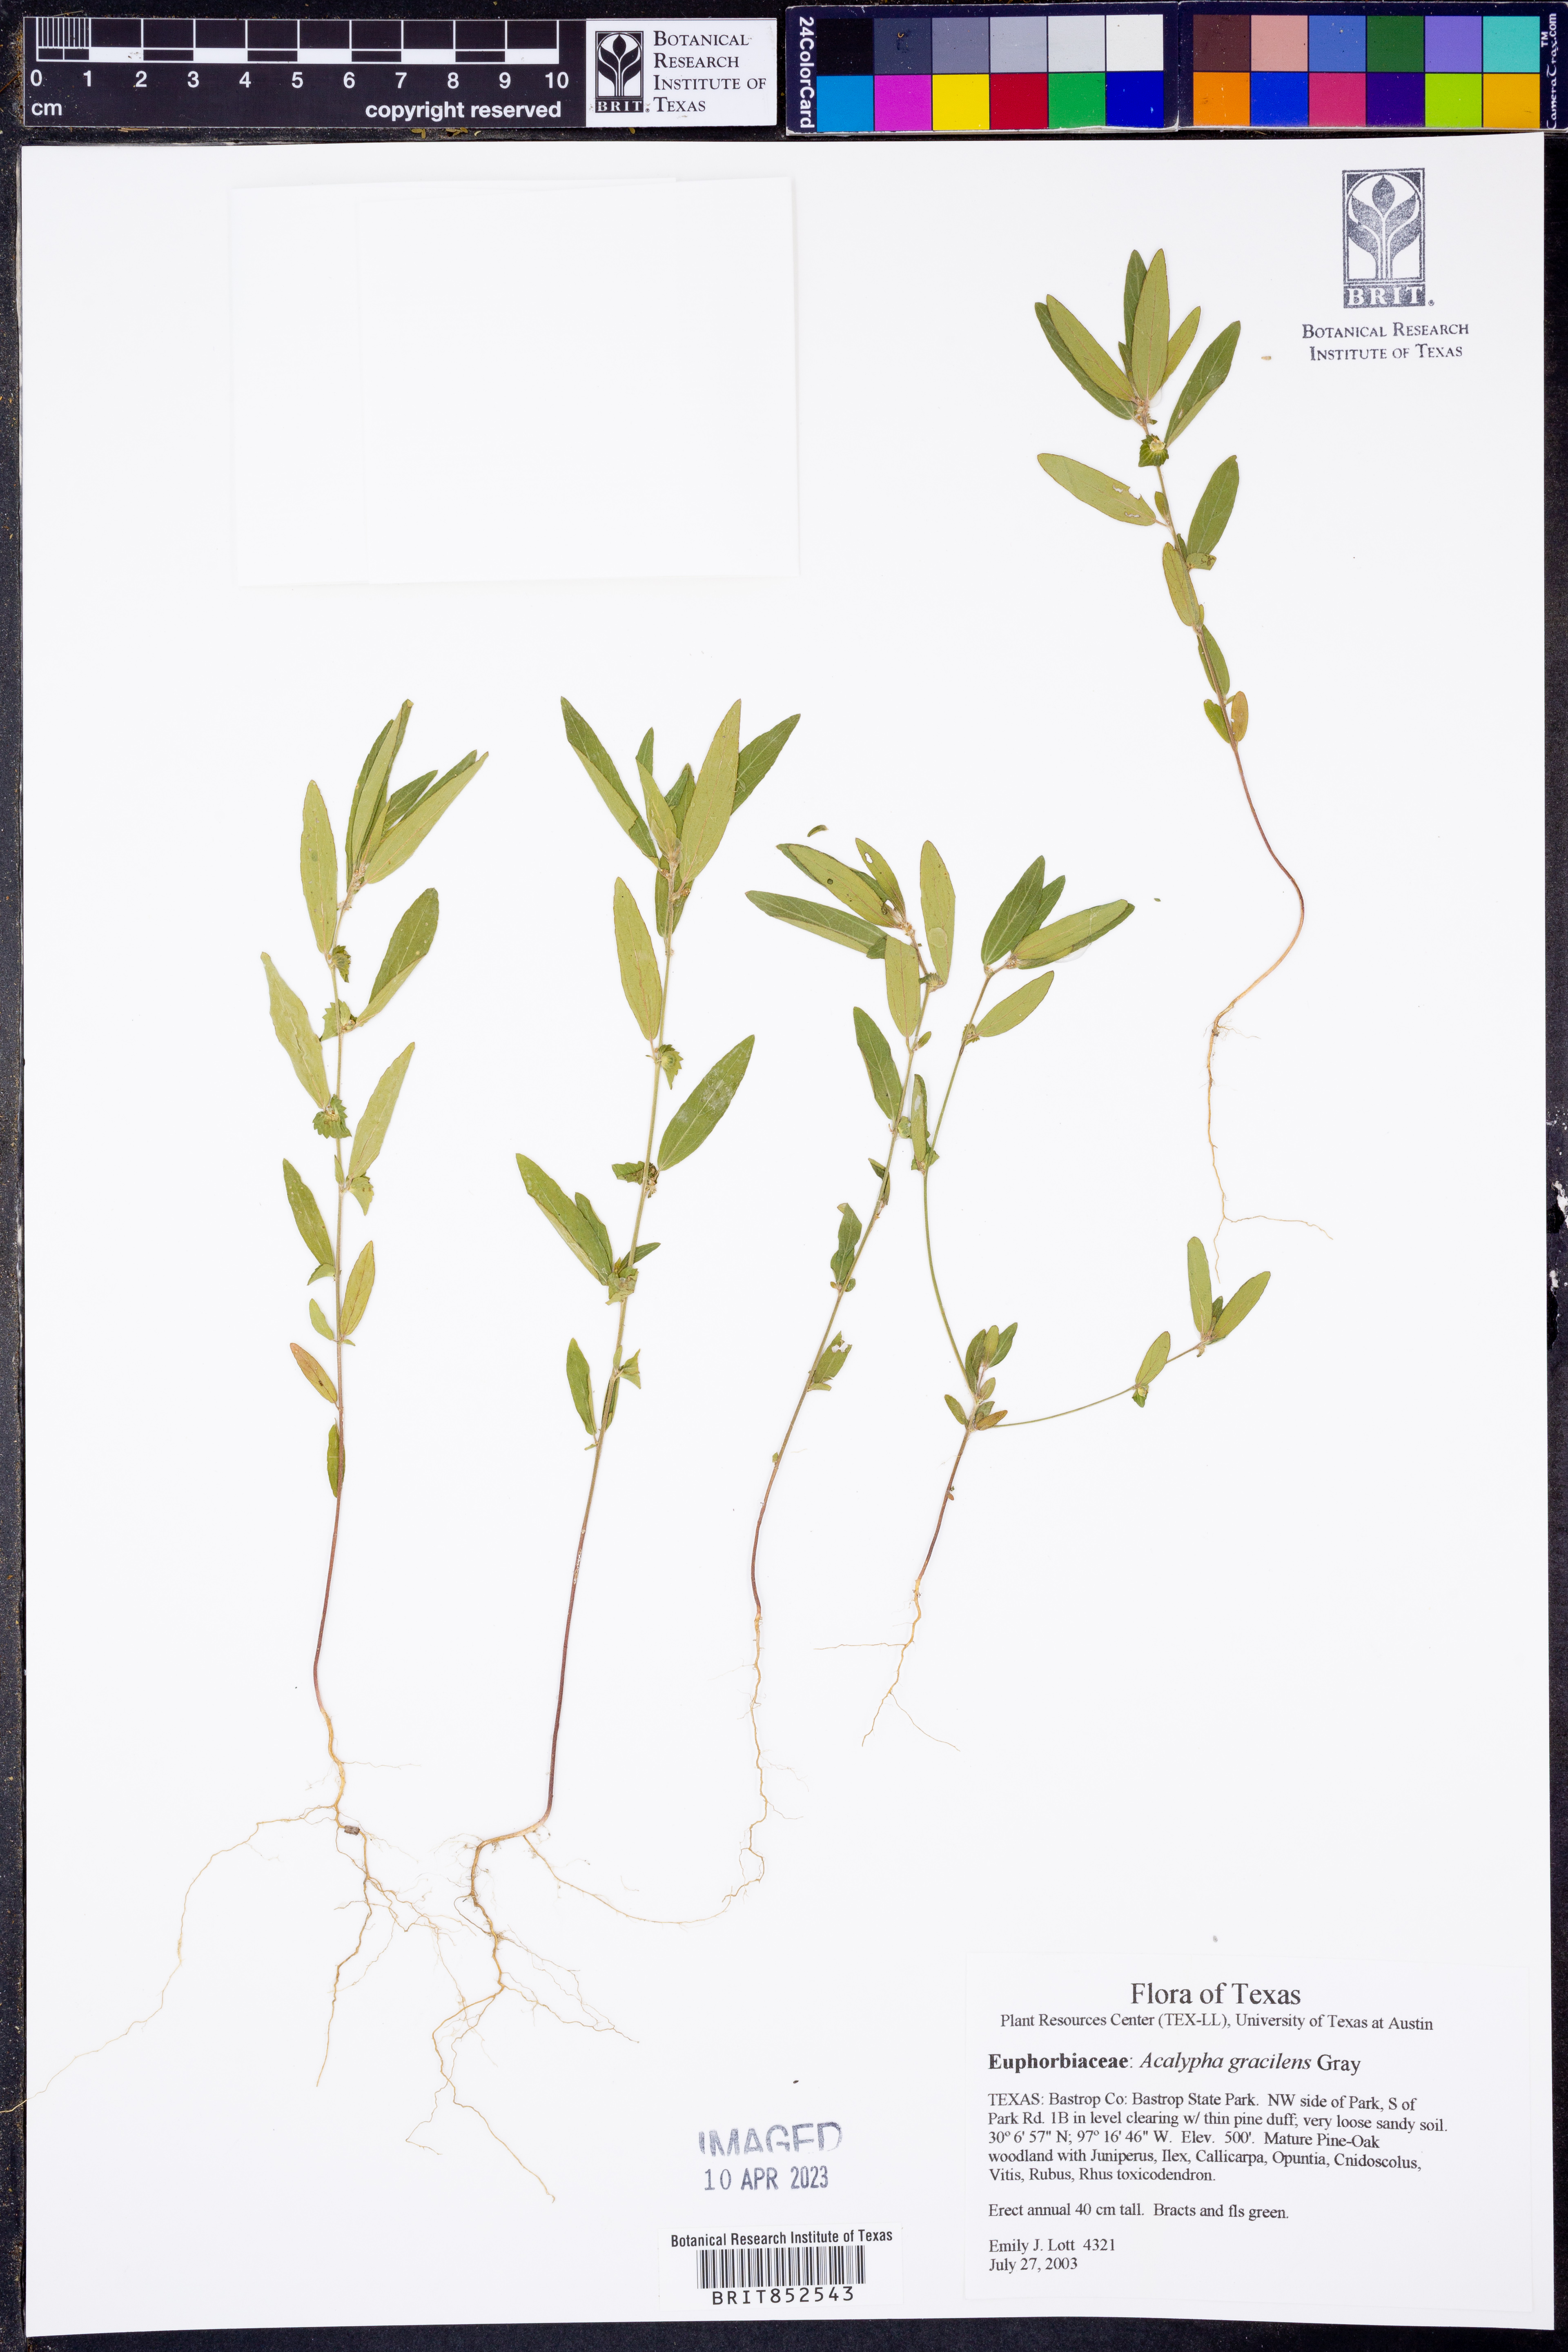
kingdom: Plantae
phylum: Tracheophyta
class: Magnoliopsida
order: Malpighiales
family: Euphorbiaceae
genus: Acalypha
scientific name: Acalypha gracilens
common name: Slender three-seeded mercury
